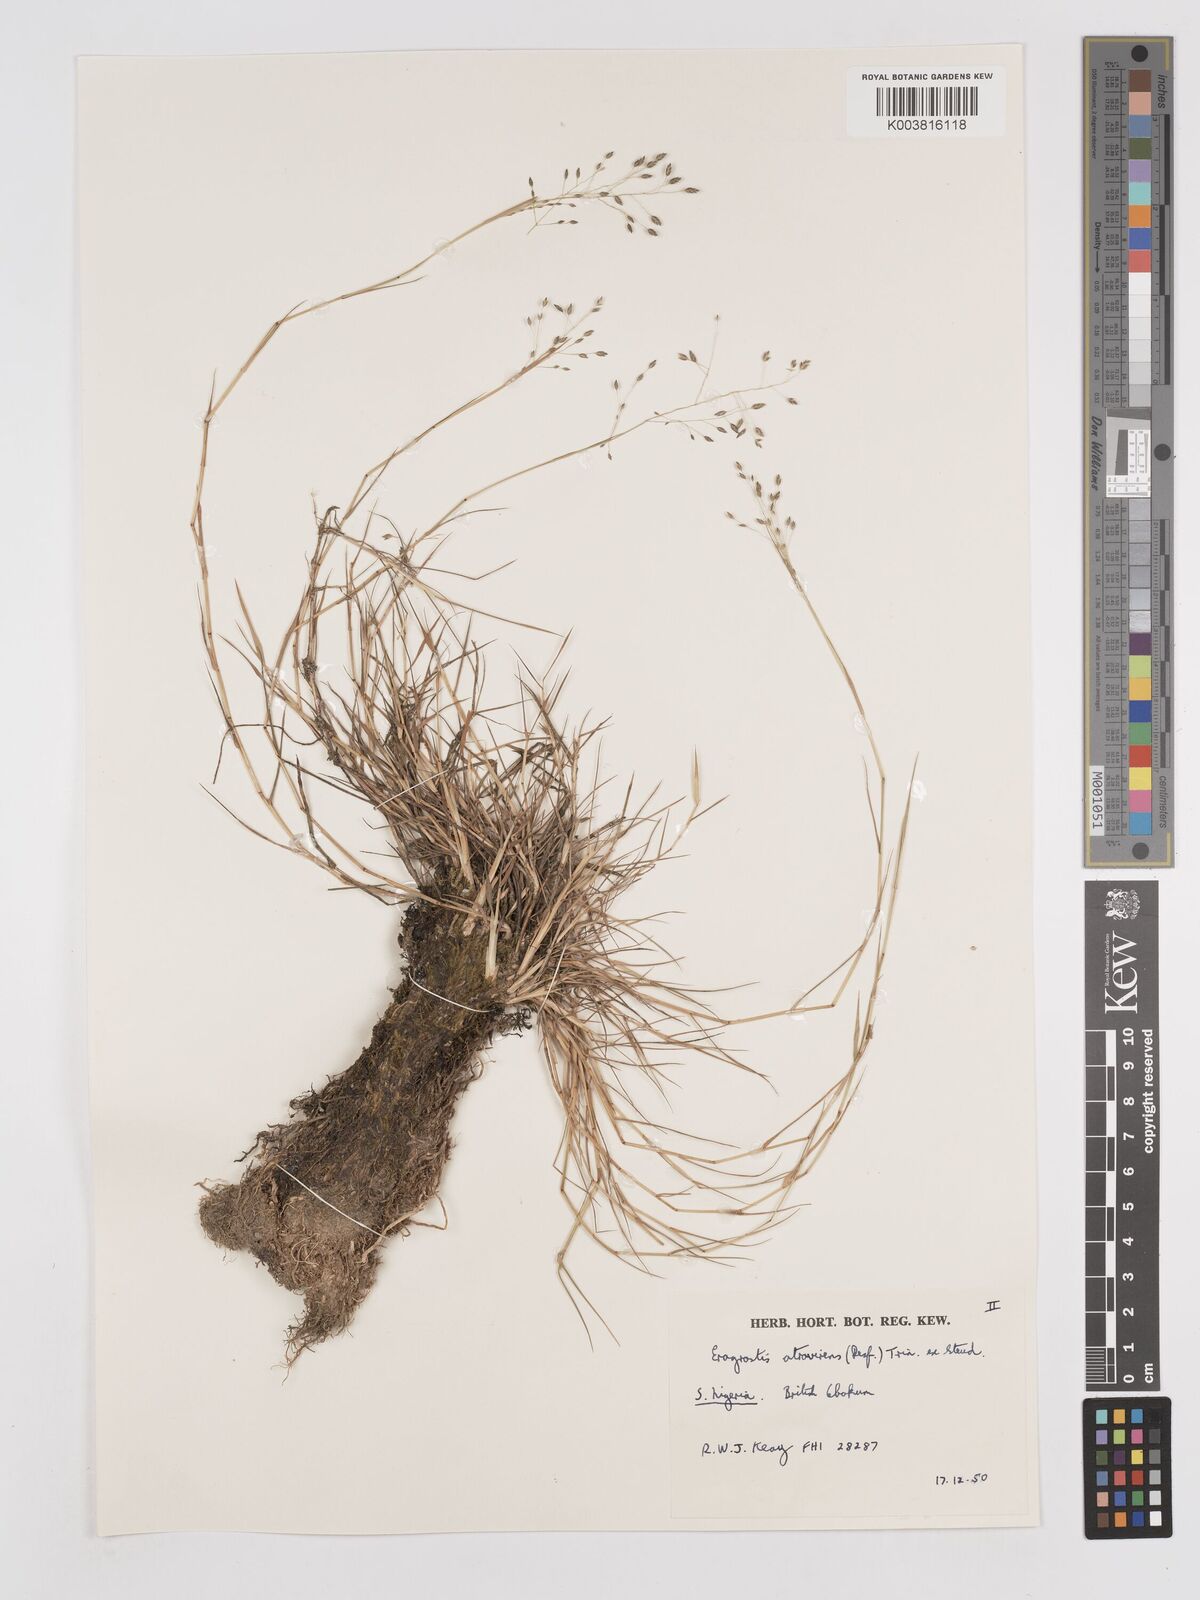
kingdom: Plantae
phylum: Tracheophyta
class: Liliopsida
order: Poales
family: Poaceae
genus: Eragrostis
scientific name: Eragrostis atrovirens
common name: Thalia lovegrass
